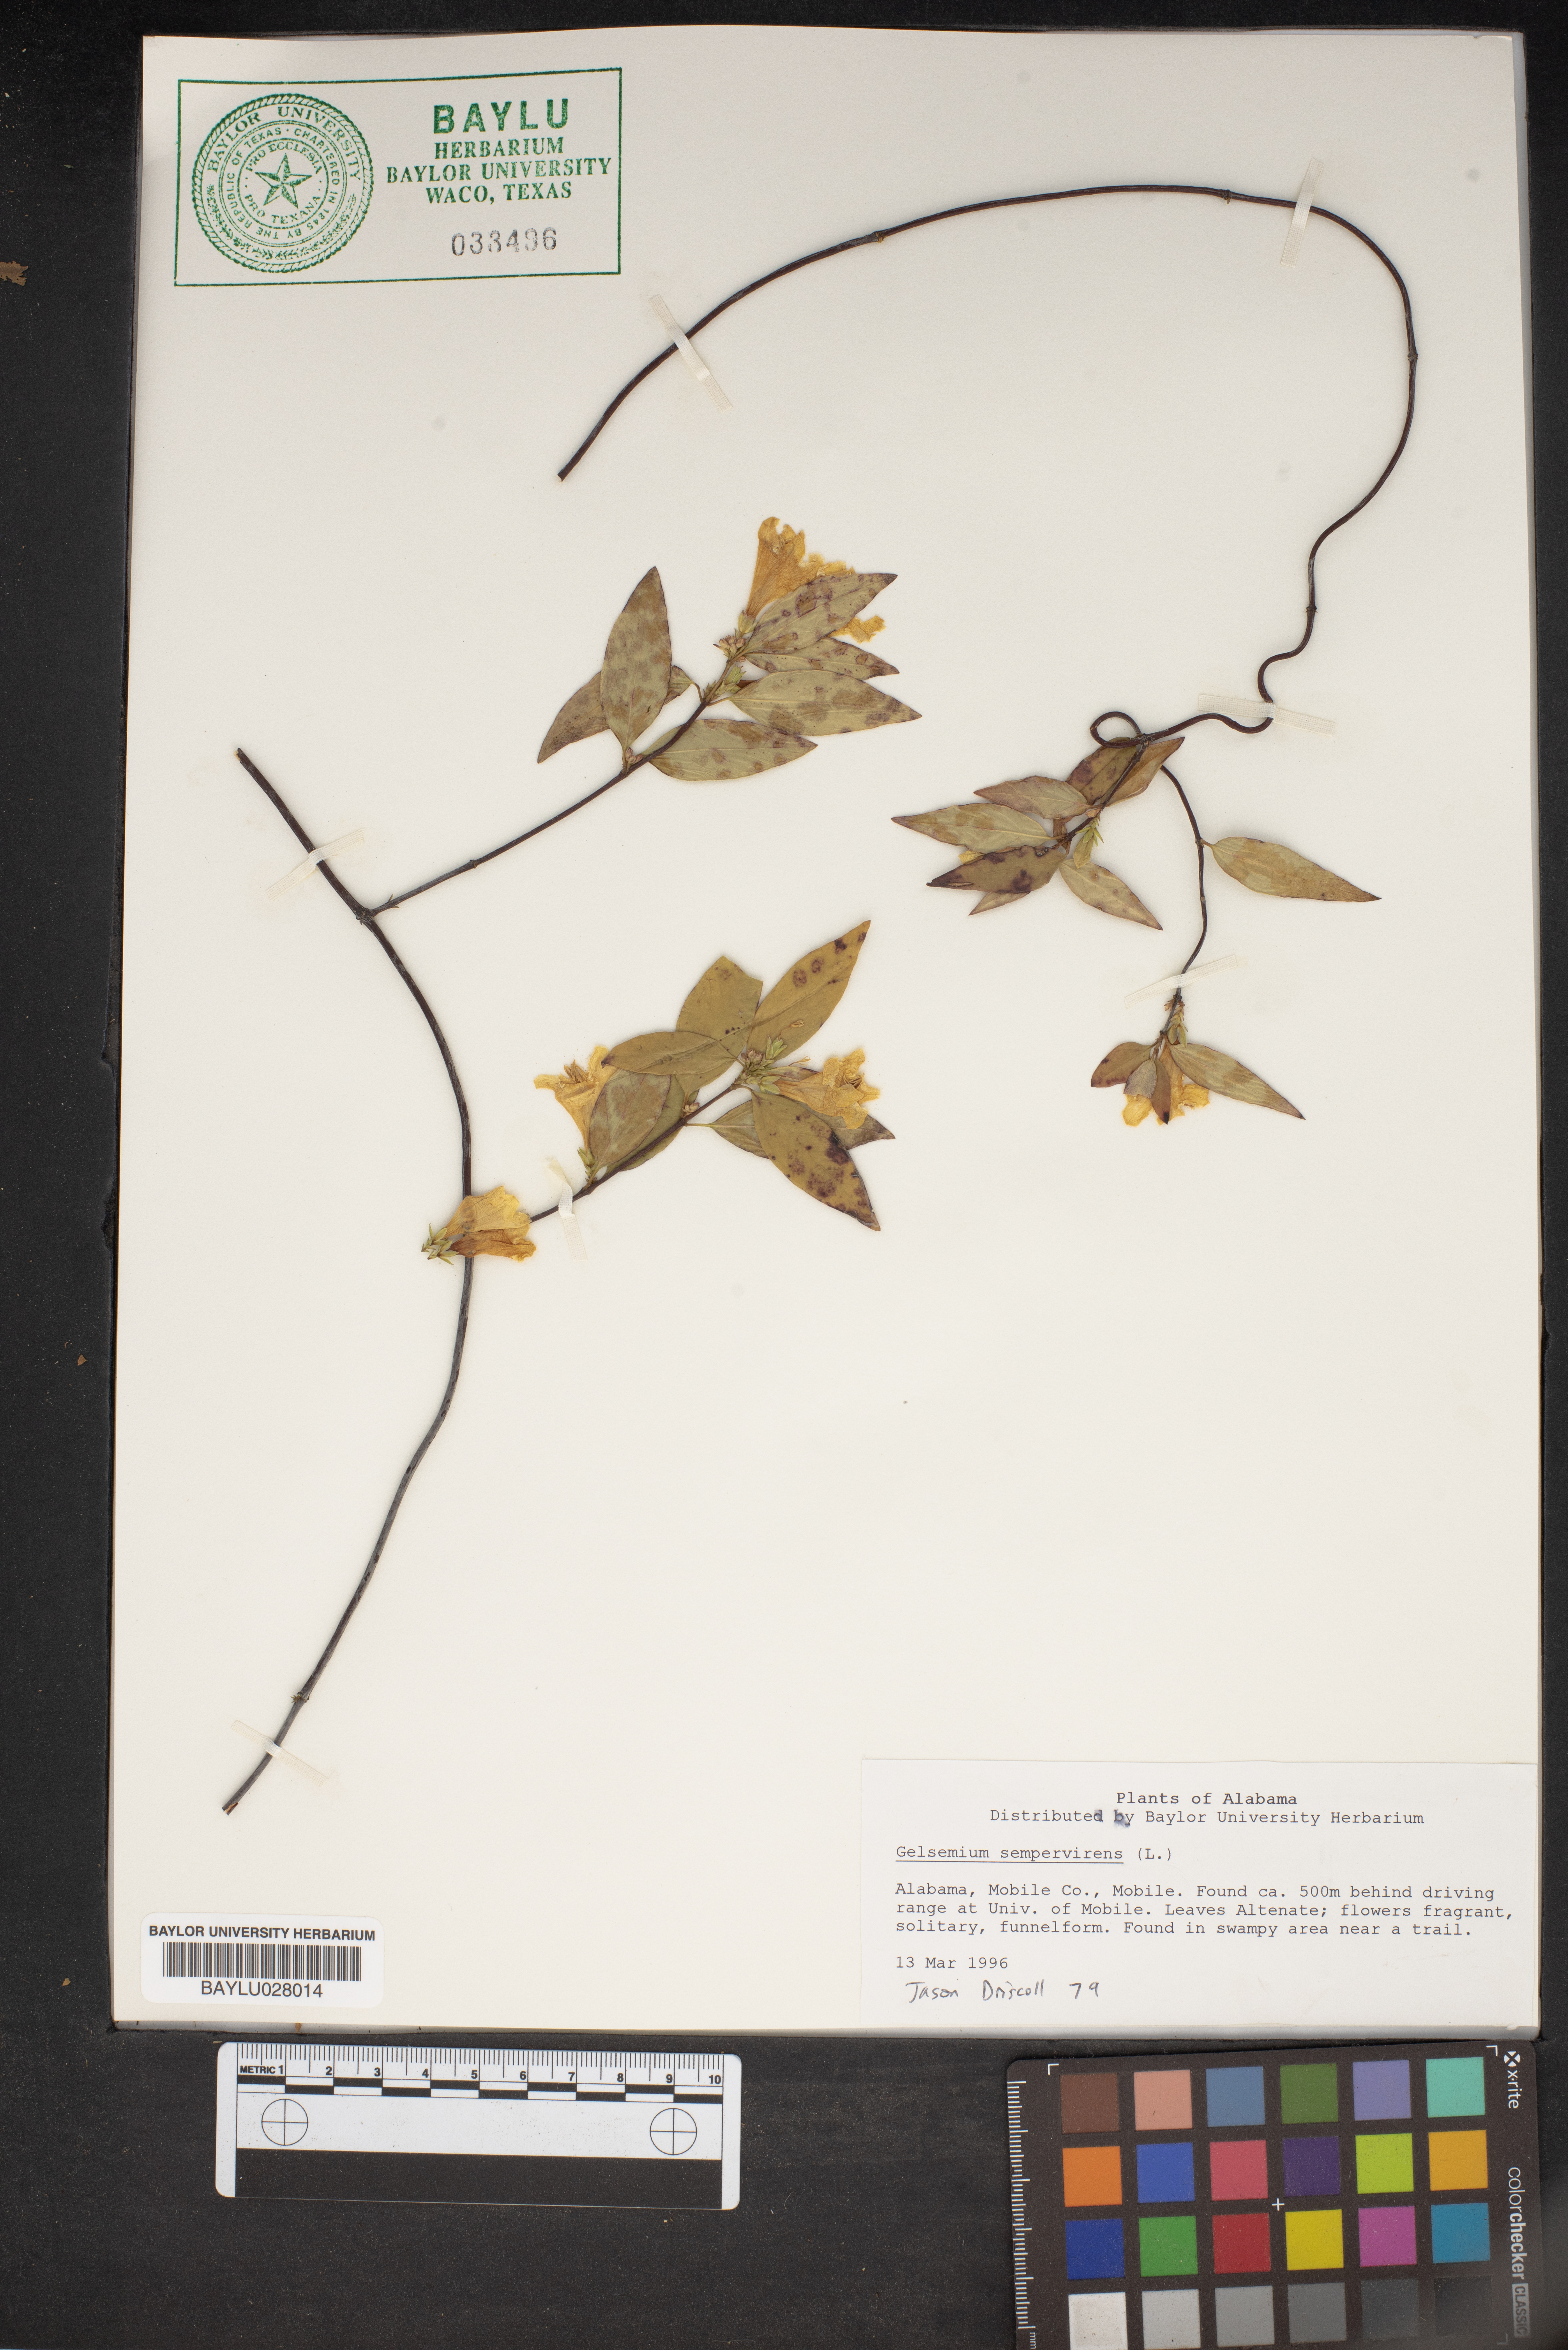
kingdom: Plantae
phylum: Tracheophyta
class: Magnoliopsida
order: Gentianales
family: Gelsemiaceae
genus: Gelsemium
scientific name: Gelsemium sempervirens
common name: Carolina-jasmine
